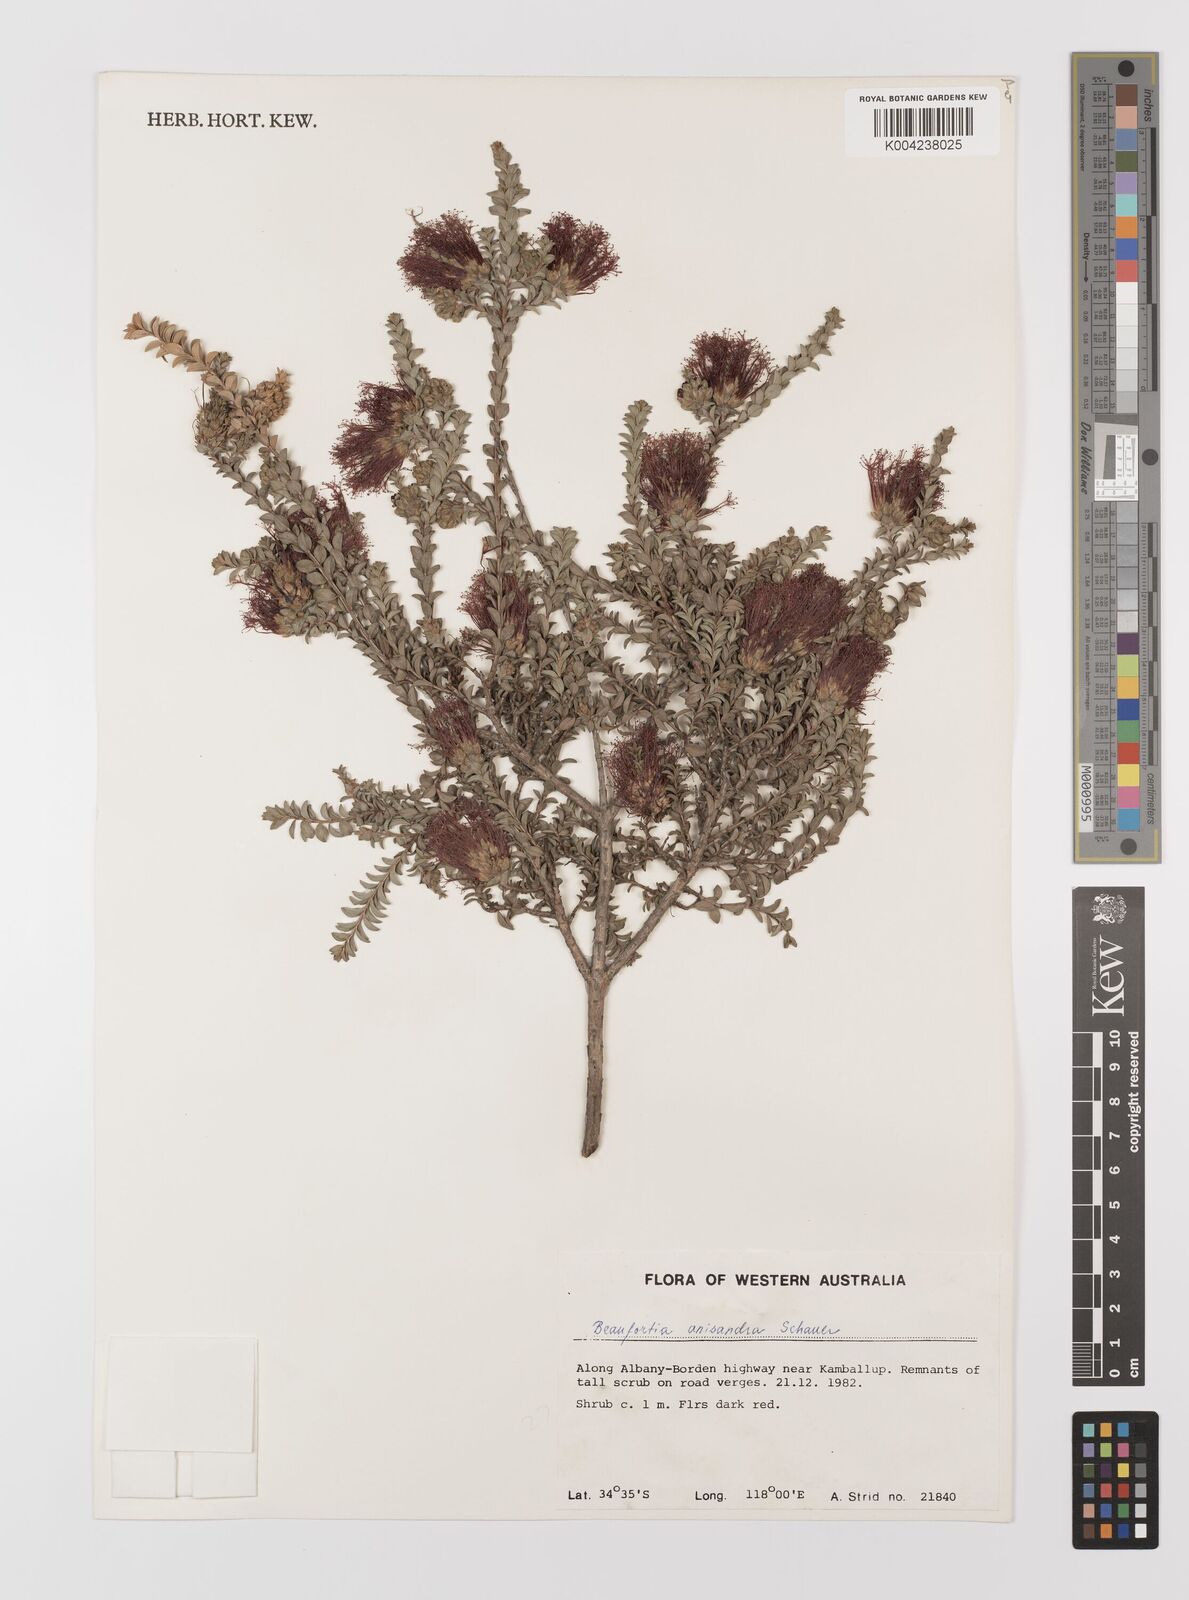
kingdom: Plantae
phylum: Tracheophyta
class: Magnoliopsida
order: Myrtales
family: Myrtaceae
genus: Melaleuca
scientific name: Melaleuca anisandra
